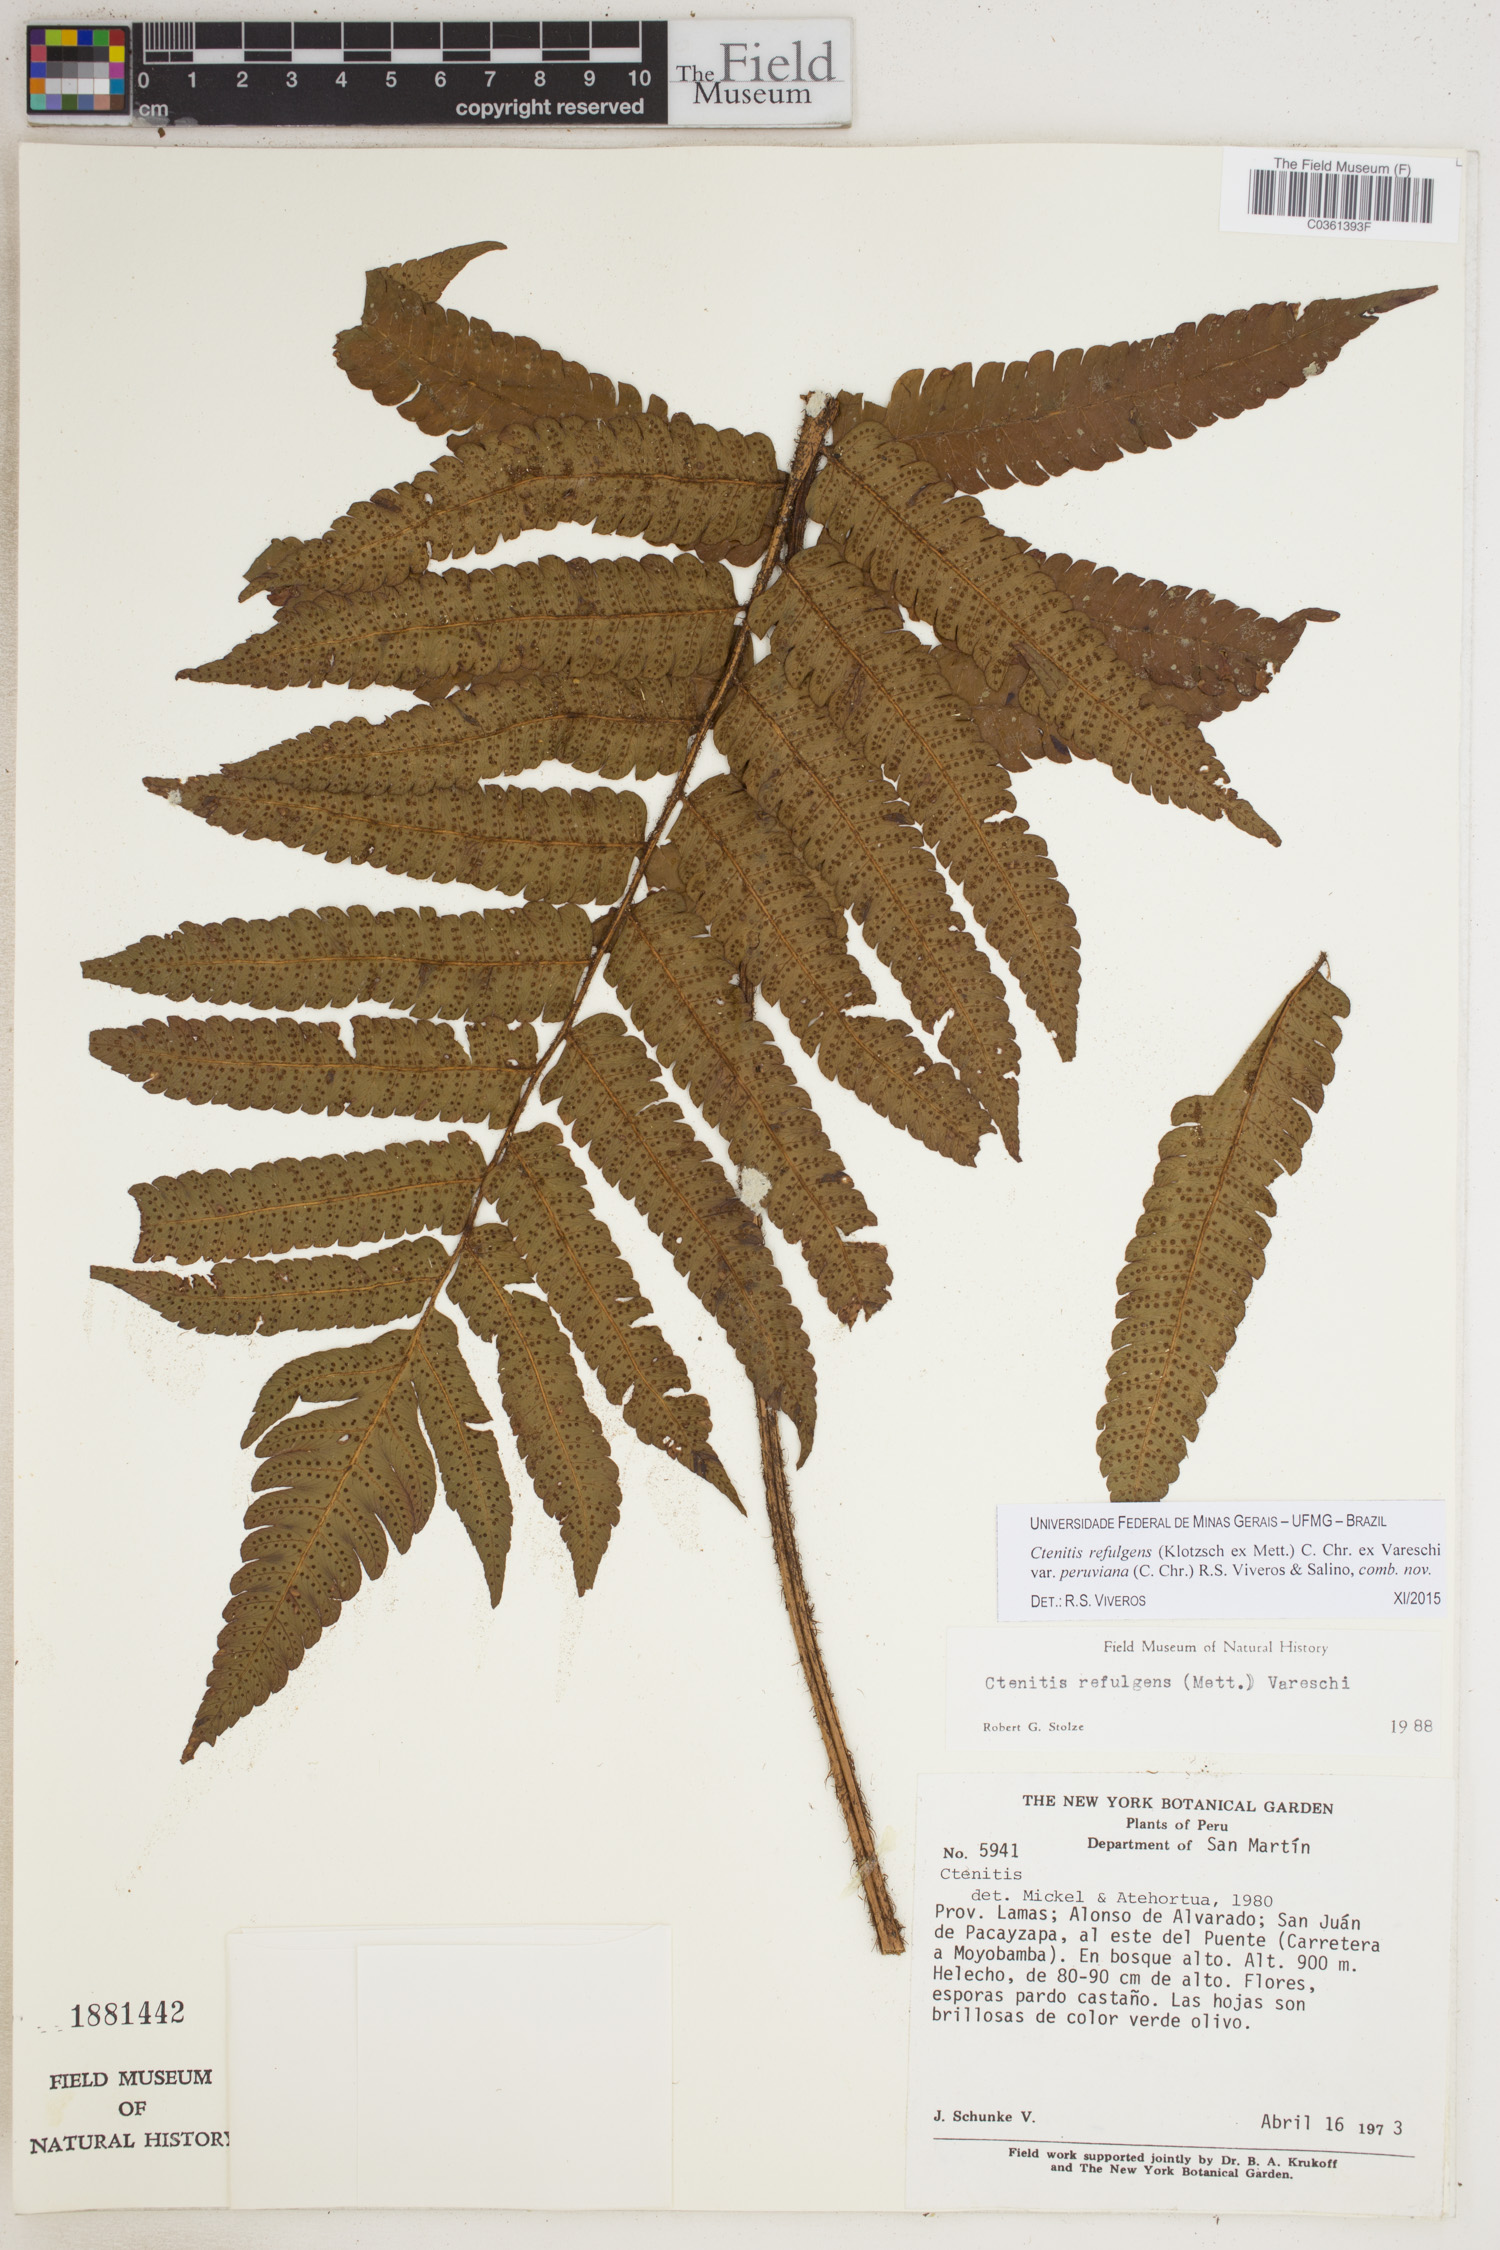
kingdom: Plantae
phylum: Tracheophyta
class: Polypodiopsida
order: Polypodiales
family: Dryopteridaceae
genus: Ctenitis
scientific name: Ctenitis refulgens
